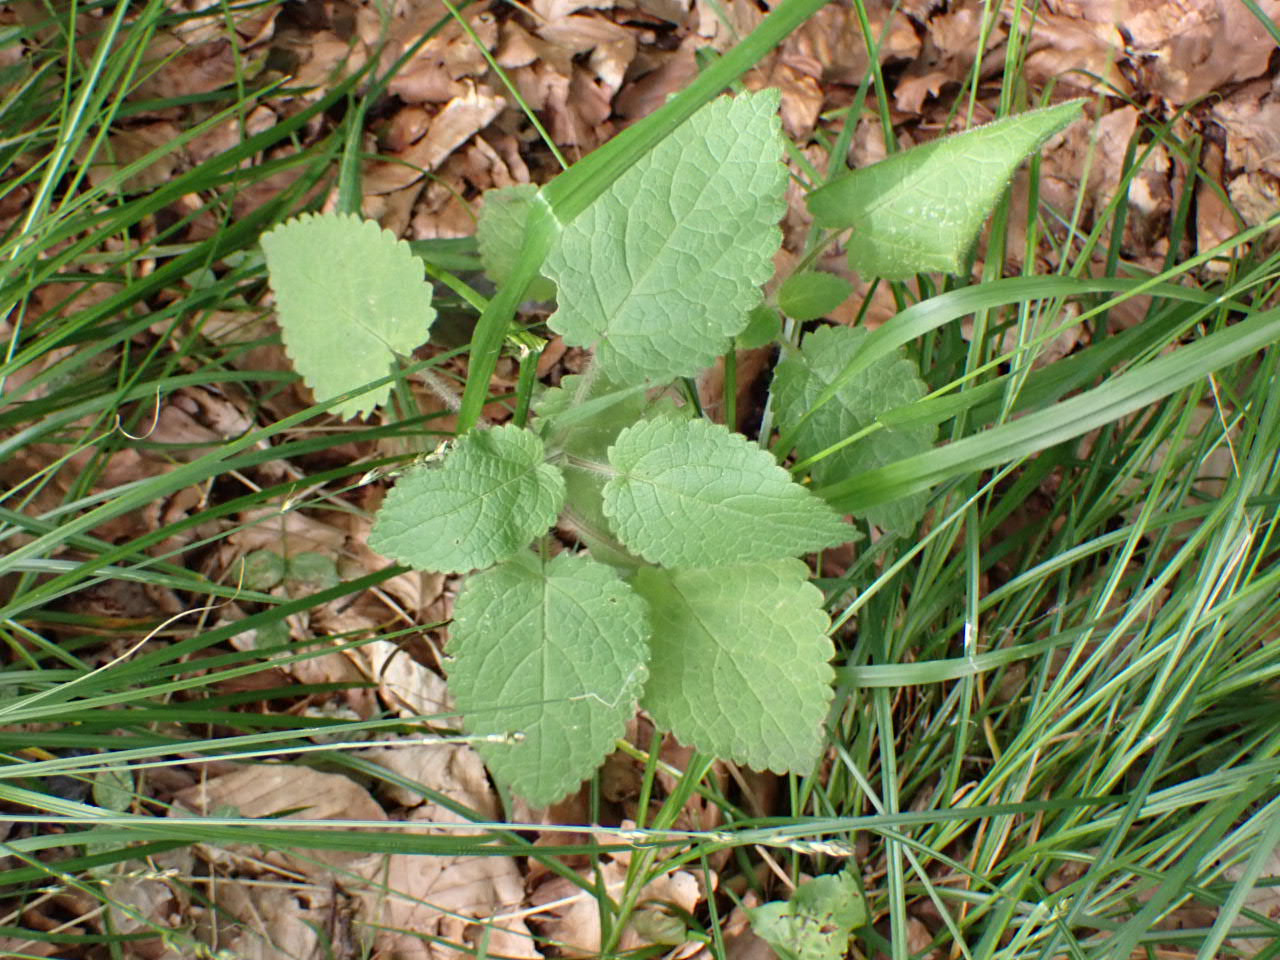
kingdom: Plantae
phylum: Tracheophyta
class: Magnoliopsida
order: Lamiales
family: Lamiaceae
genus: Stachys
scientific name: Stachys sylvatica
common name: Skov-galtetand
